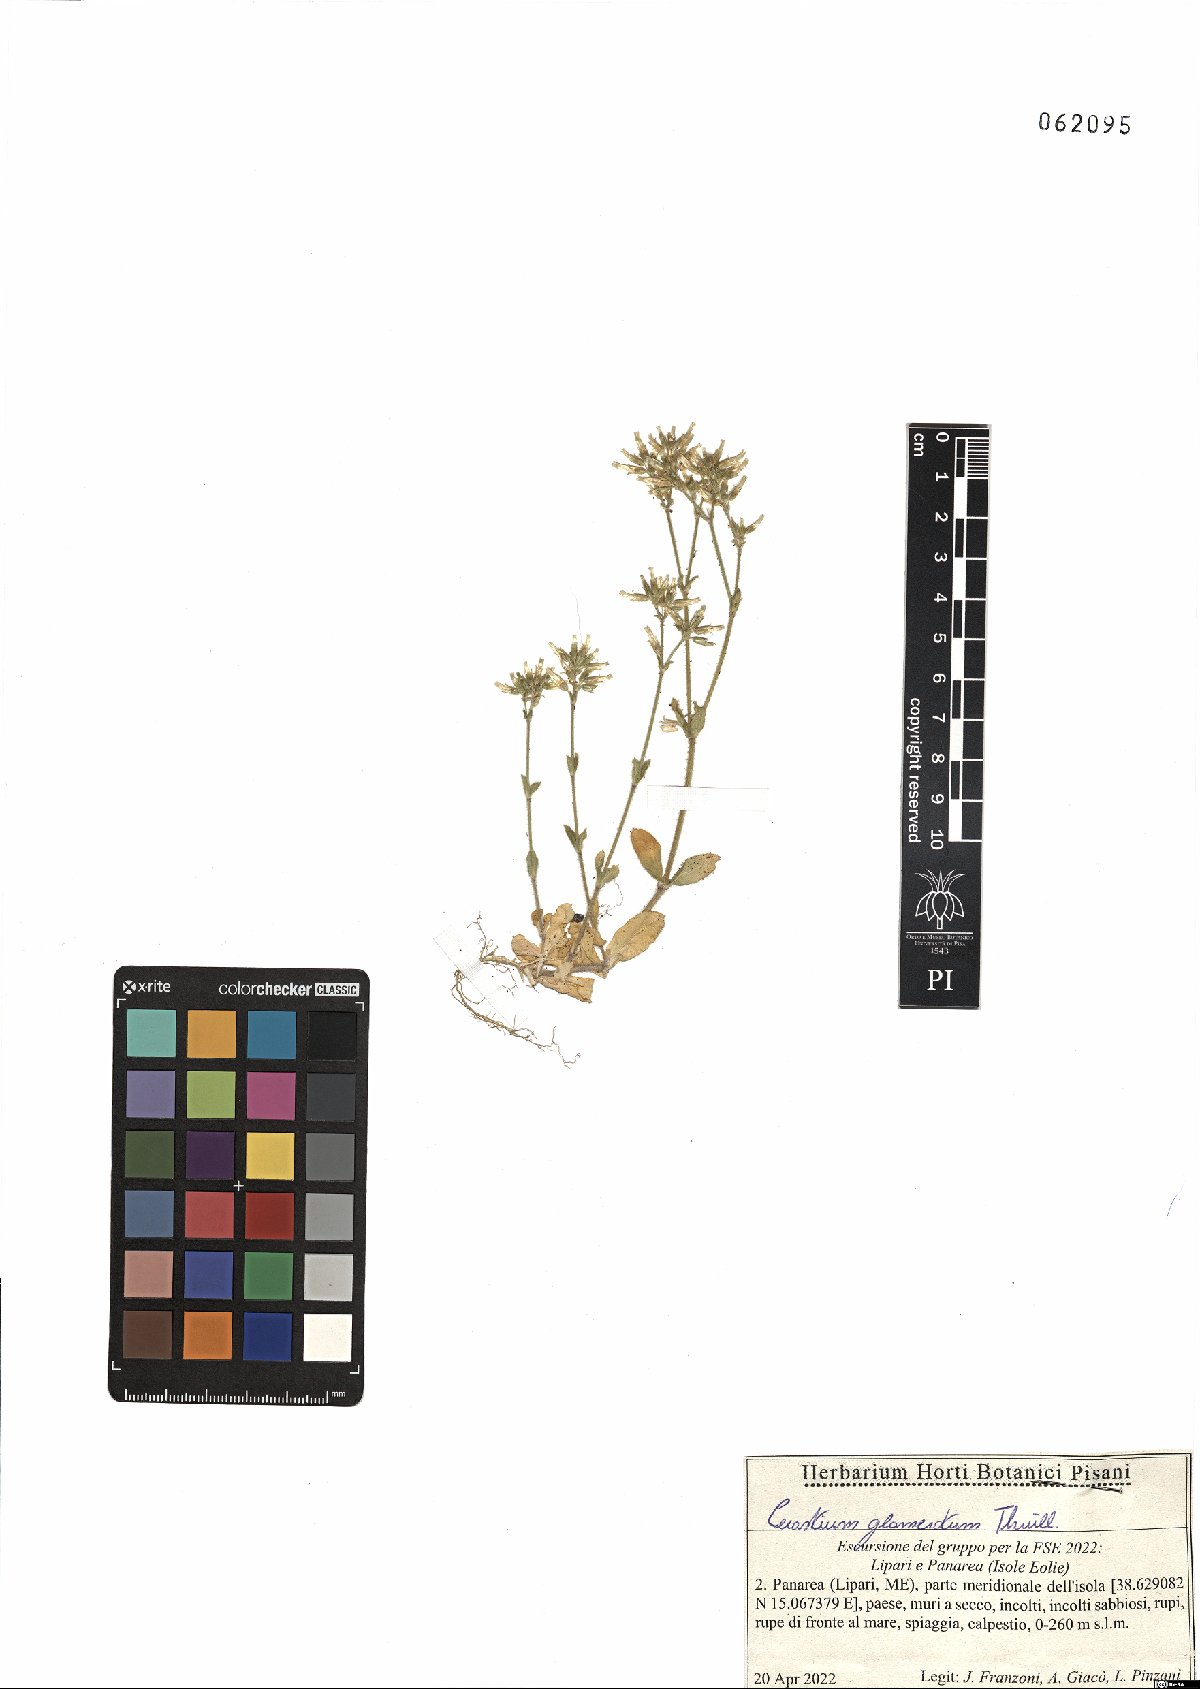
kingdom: Plantae
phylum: Tracheophyta
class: Magnoliopsida
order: Caryophyllales
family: Caryophyllaceae
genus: Cerastium
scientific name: Cerastium glomeratum
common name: Sticky chickweed
